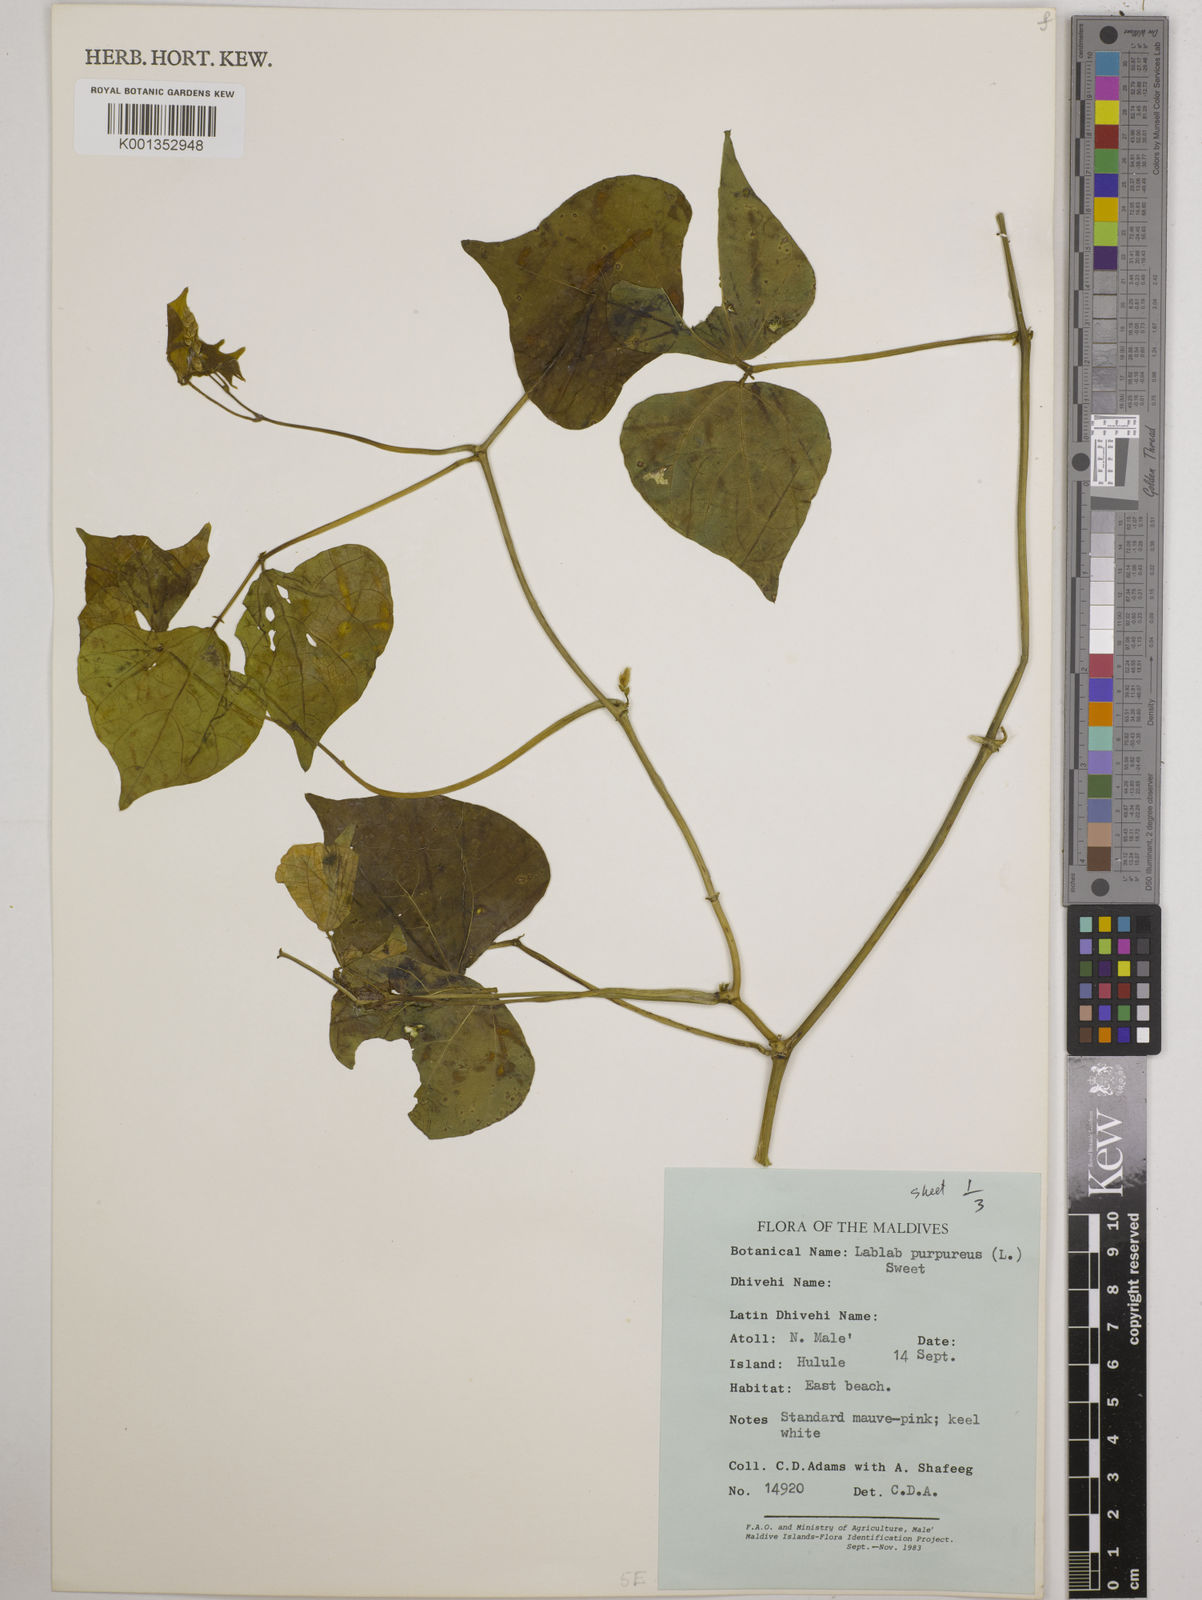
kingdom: Plantae
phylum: Tracheophyta
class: Magnoliopsida
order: Fabales
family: Fabaceae
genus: Lablab
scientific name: Lablab purpureus
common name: Lablab-bean
